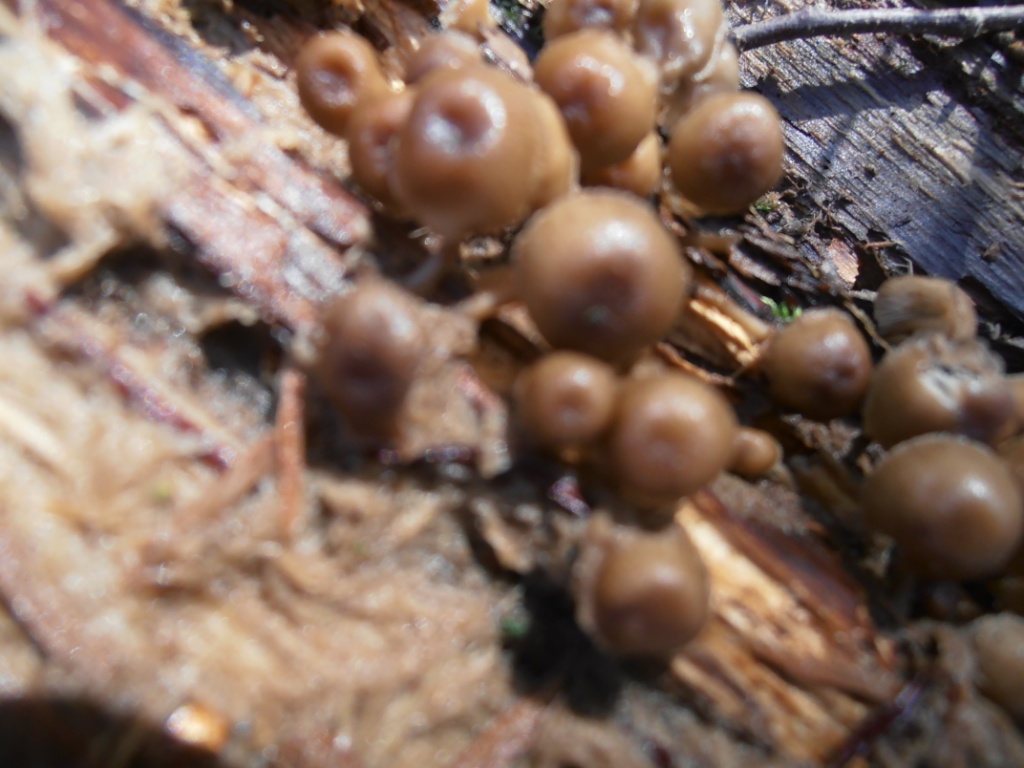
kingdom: Fungi
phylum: Basidiomycota
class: Agaricomycetes
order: Agaricales
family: Mycenaceae
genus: Mycena
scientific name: Mycena tintinnabulum
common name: vinter-huesvamp
